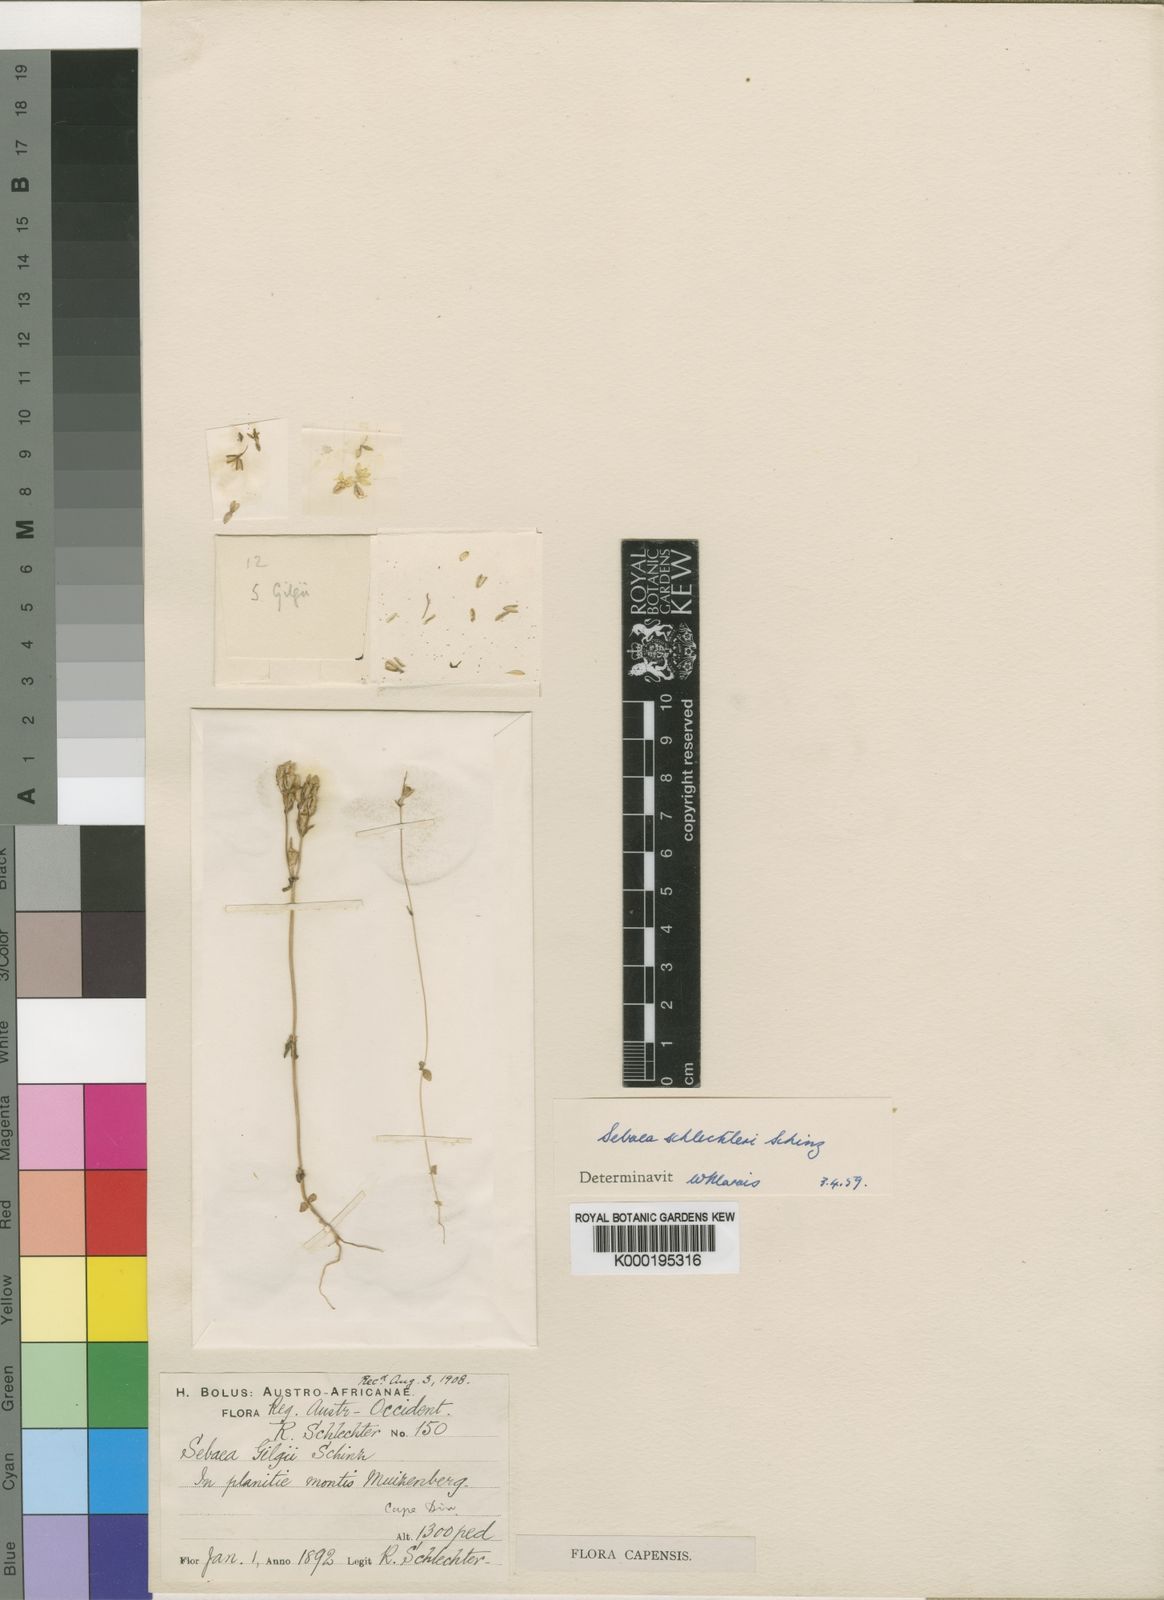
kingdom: Plantae
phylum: Tracheophyta
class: Magnoliopsida
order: Gentianales
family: Gentianaceae
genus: Sebaea
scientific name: Sebaea schlechteri
